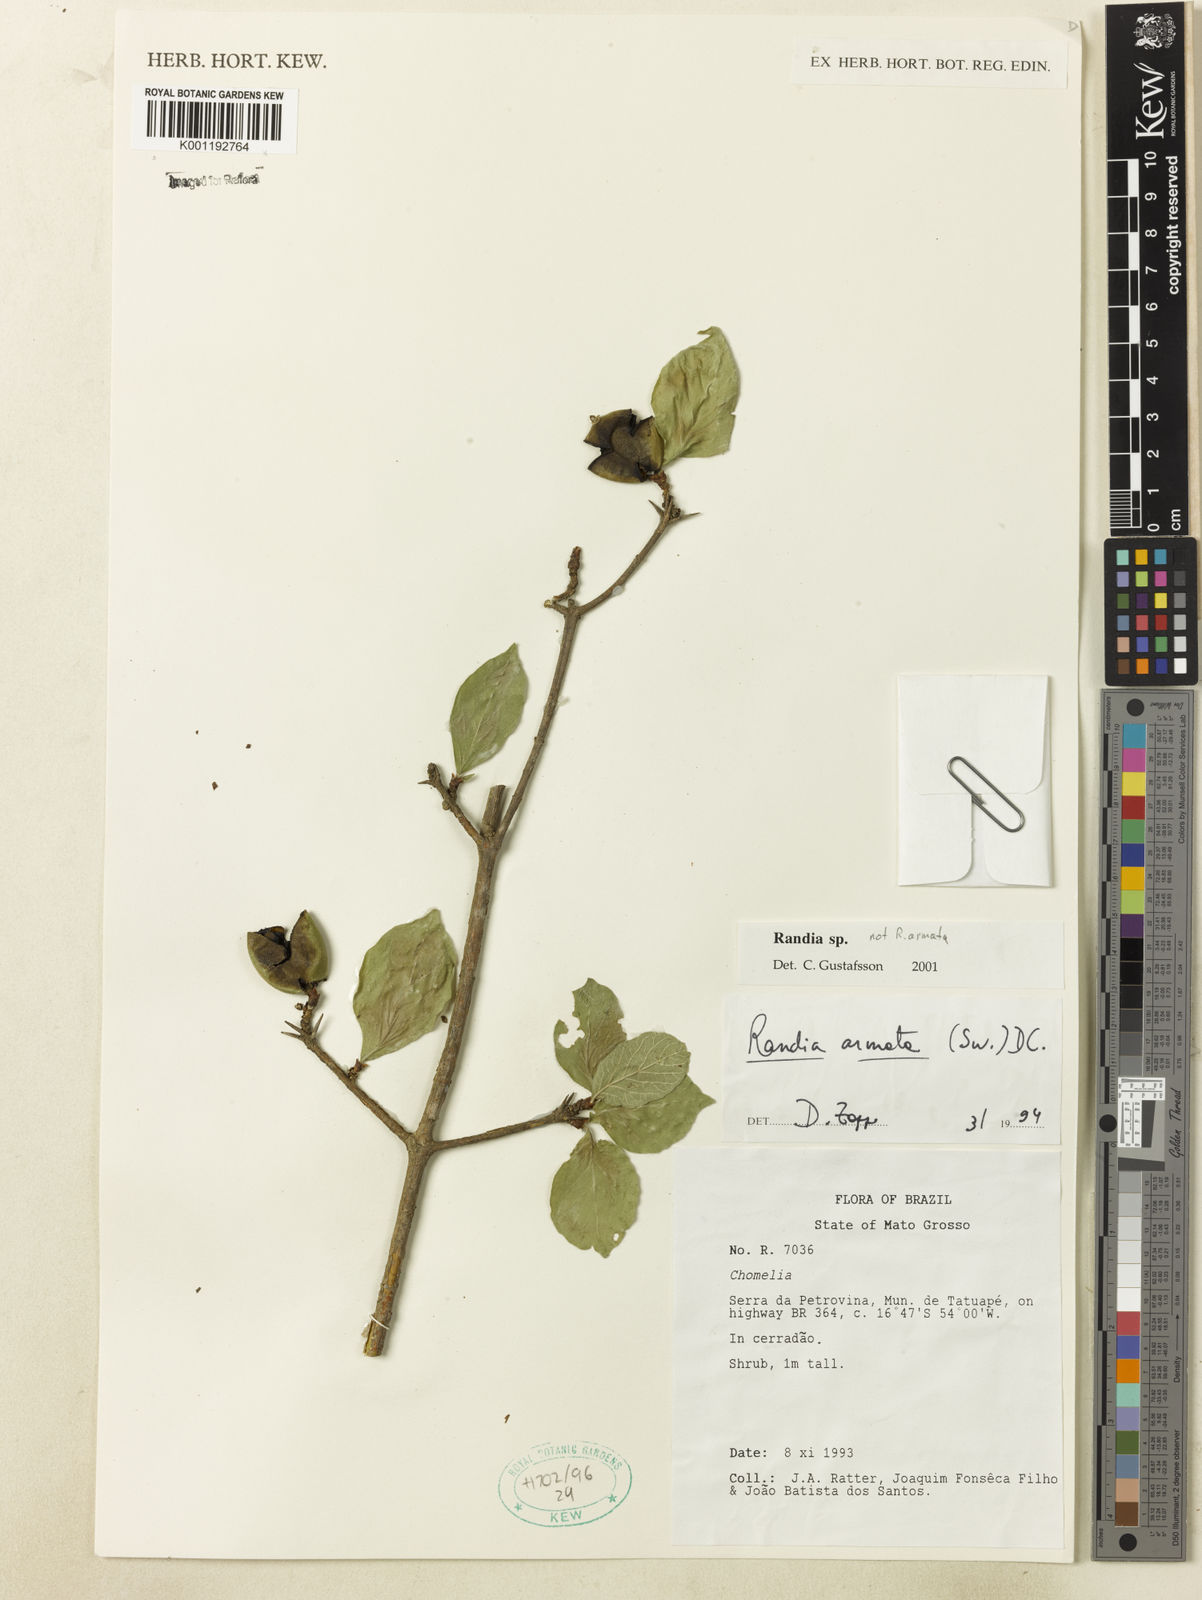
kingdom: Plantae
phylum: Tracheophyta
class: Magnoliopsida
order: Gentianales
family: Rubiaceae
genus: Randia
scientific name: Randia
